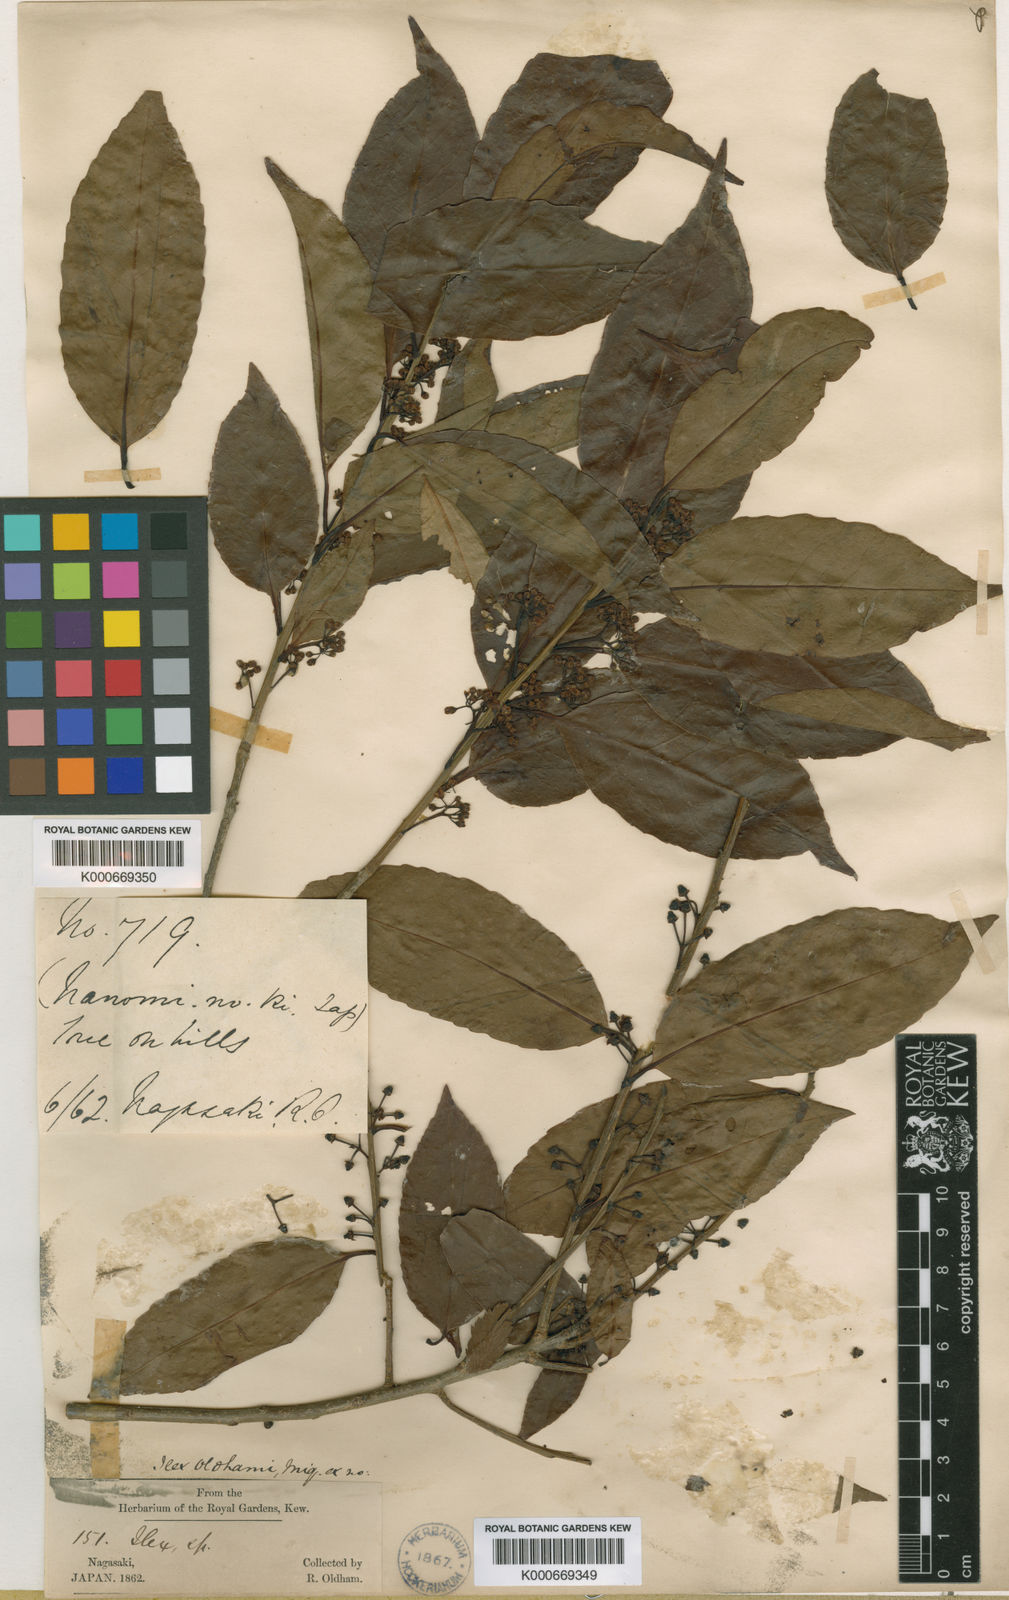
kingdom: Plantae
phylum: Tracheophyta
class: Magnoliopsida
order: Aquifoliales
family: Aquifoliaceae
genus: Ilex
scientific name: Ilex chinensis
